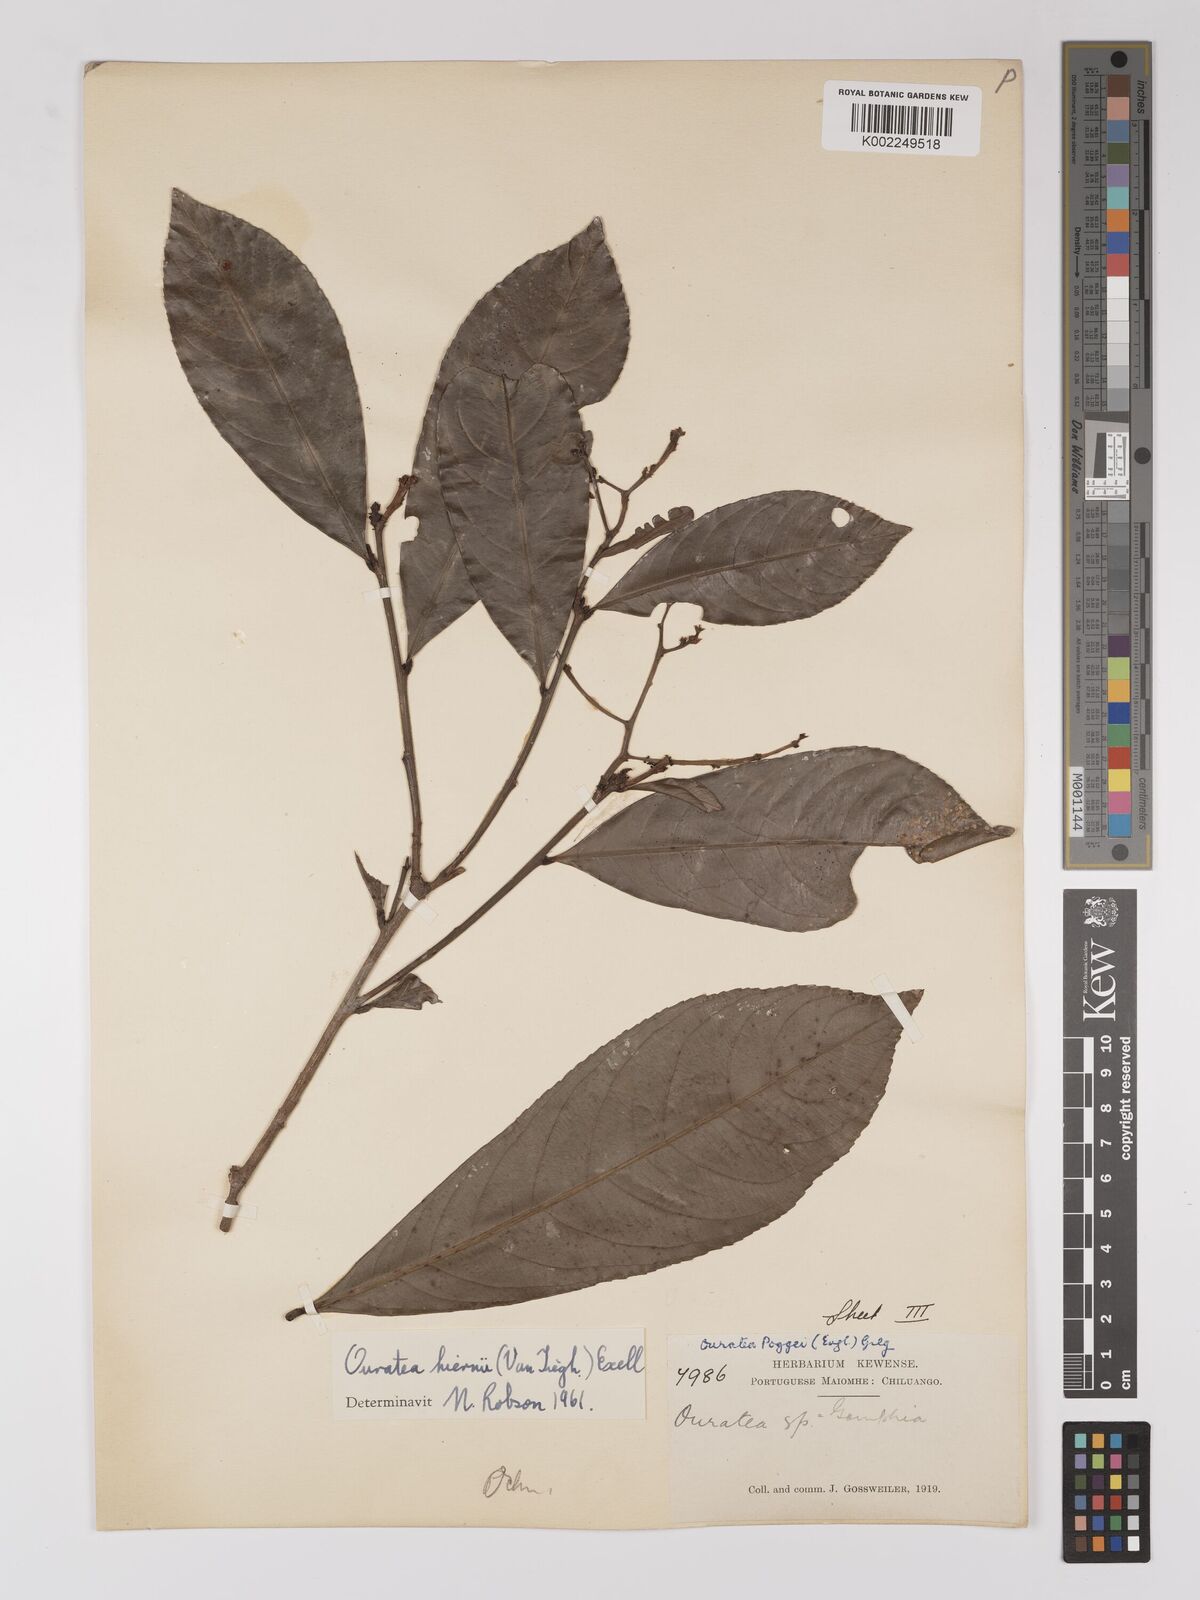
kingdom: Plantae
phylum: Tracheophyta
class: Magnoliopsida
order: Malpighiales
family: Ochnaceae
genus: Campylospermum
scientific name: Campylospermum vogelii
